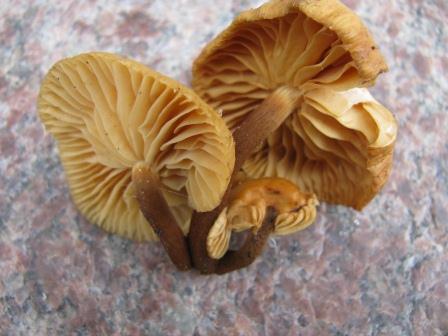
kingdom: Fungi
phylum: Basidiomycota
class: Agaricomycetes
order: Agaricales
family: Physalacriaceae
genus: Flammulina
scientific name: Flammulina elastica
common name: pile-fløjlsfod
